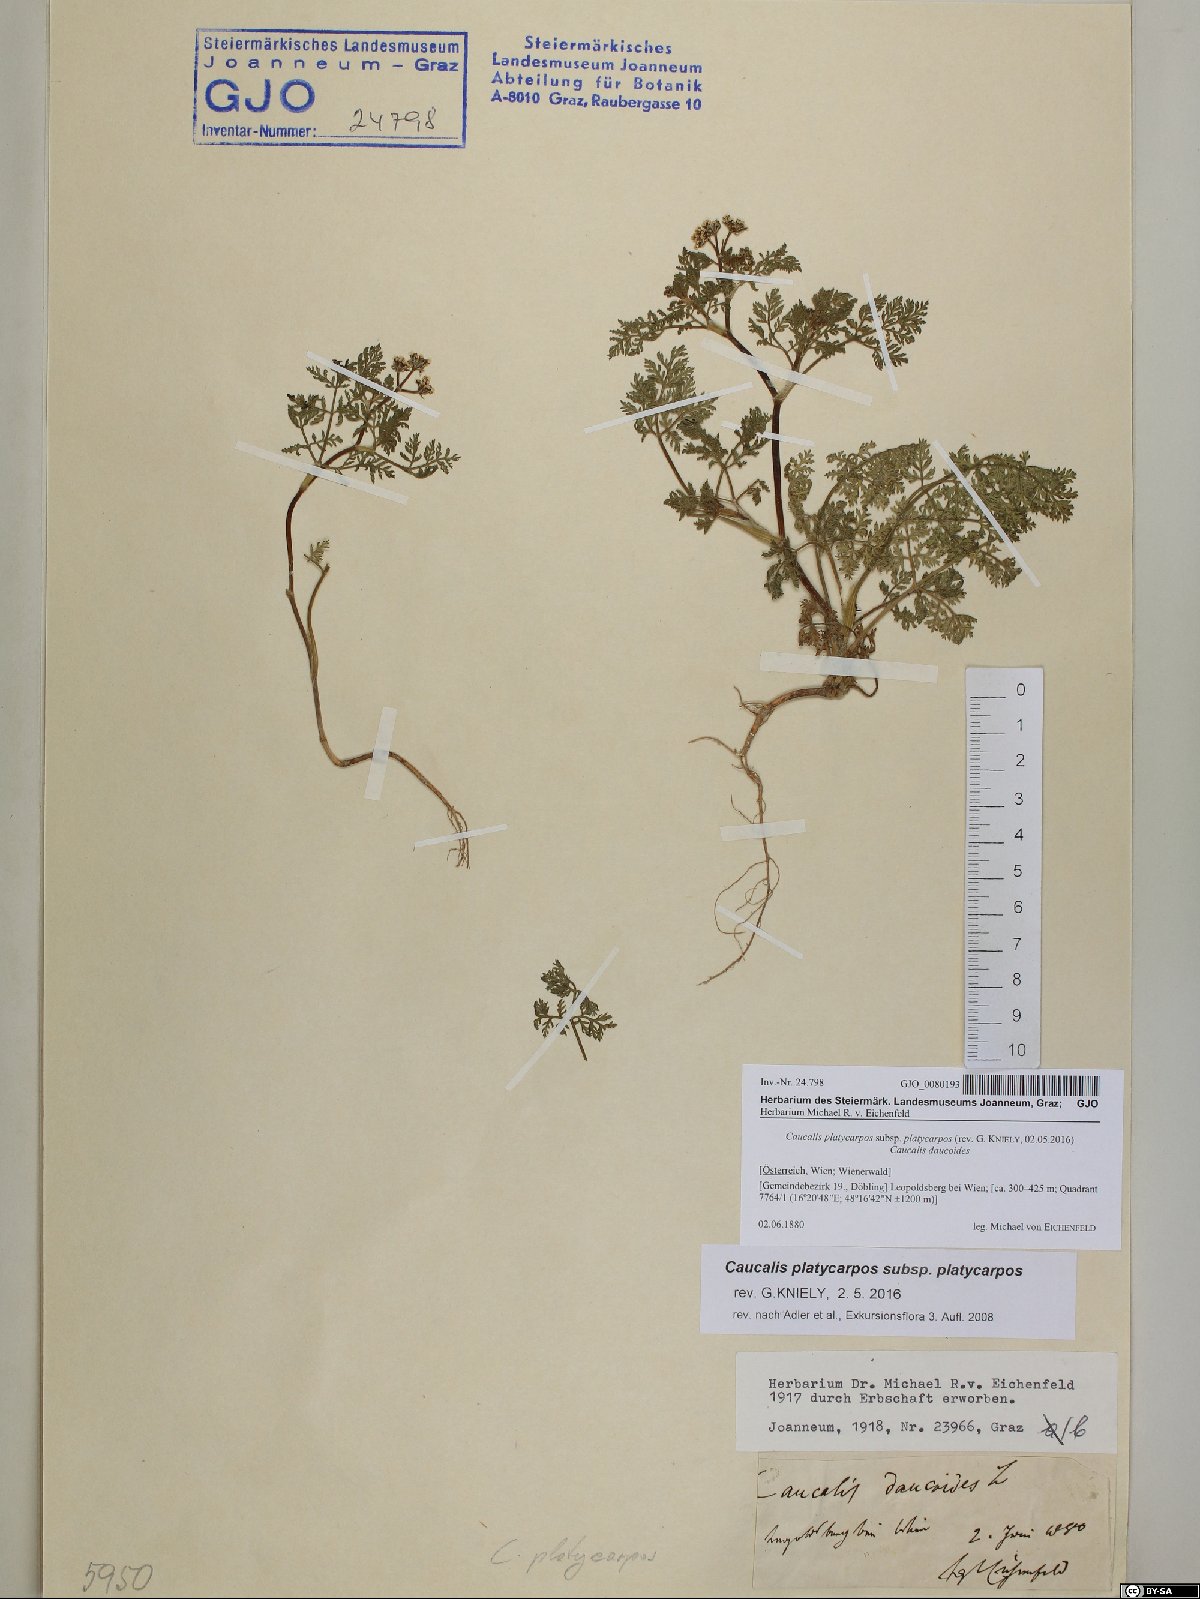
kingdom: Plantae
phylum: Tracheophyta
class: Magnoliopsida
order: Apiales
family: Apiaceae
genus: Caucalis
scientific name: Caucalis platycarpos
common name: Small bur-parsley
